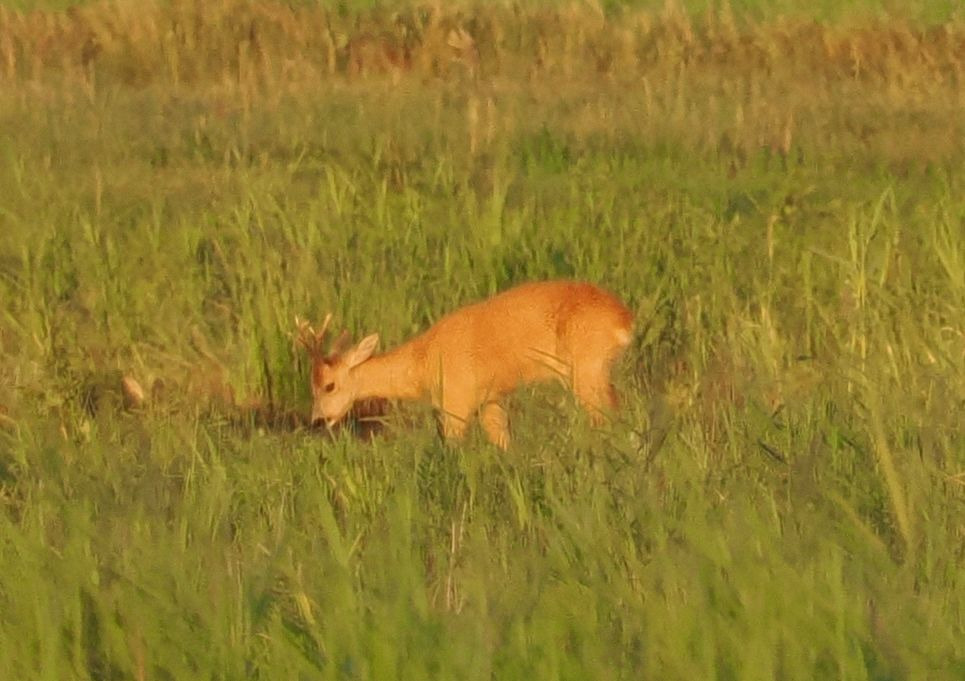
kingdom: Animalia
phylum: Chordata
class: Mammalia
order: Artiodactyla
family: Cervidae
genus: Capreolus
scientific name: Capreolus capreolus
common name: Rådyr
